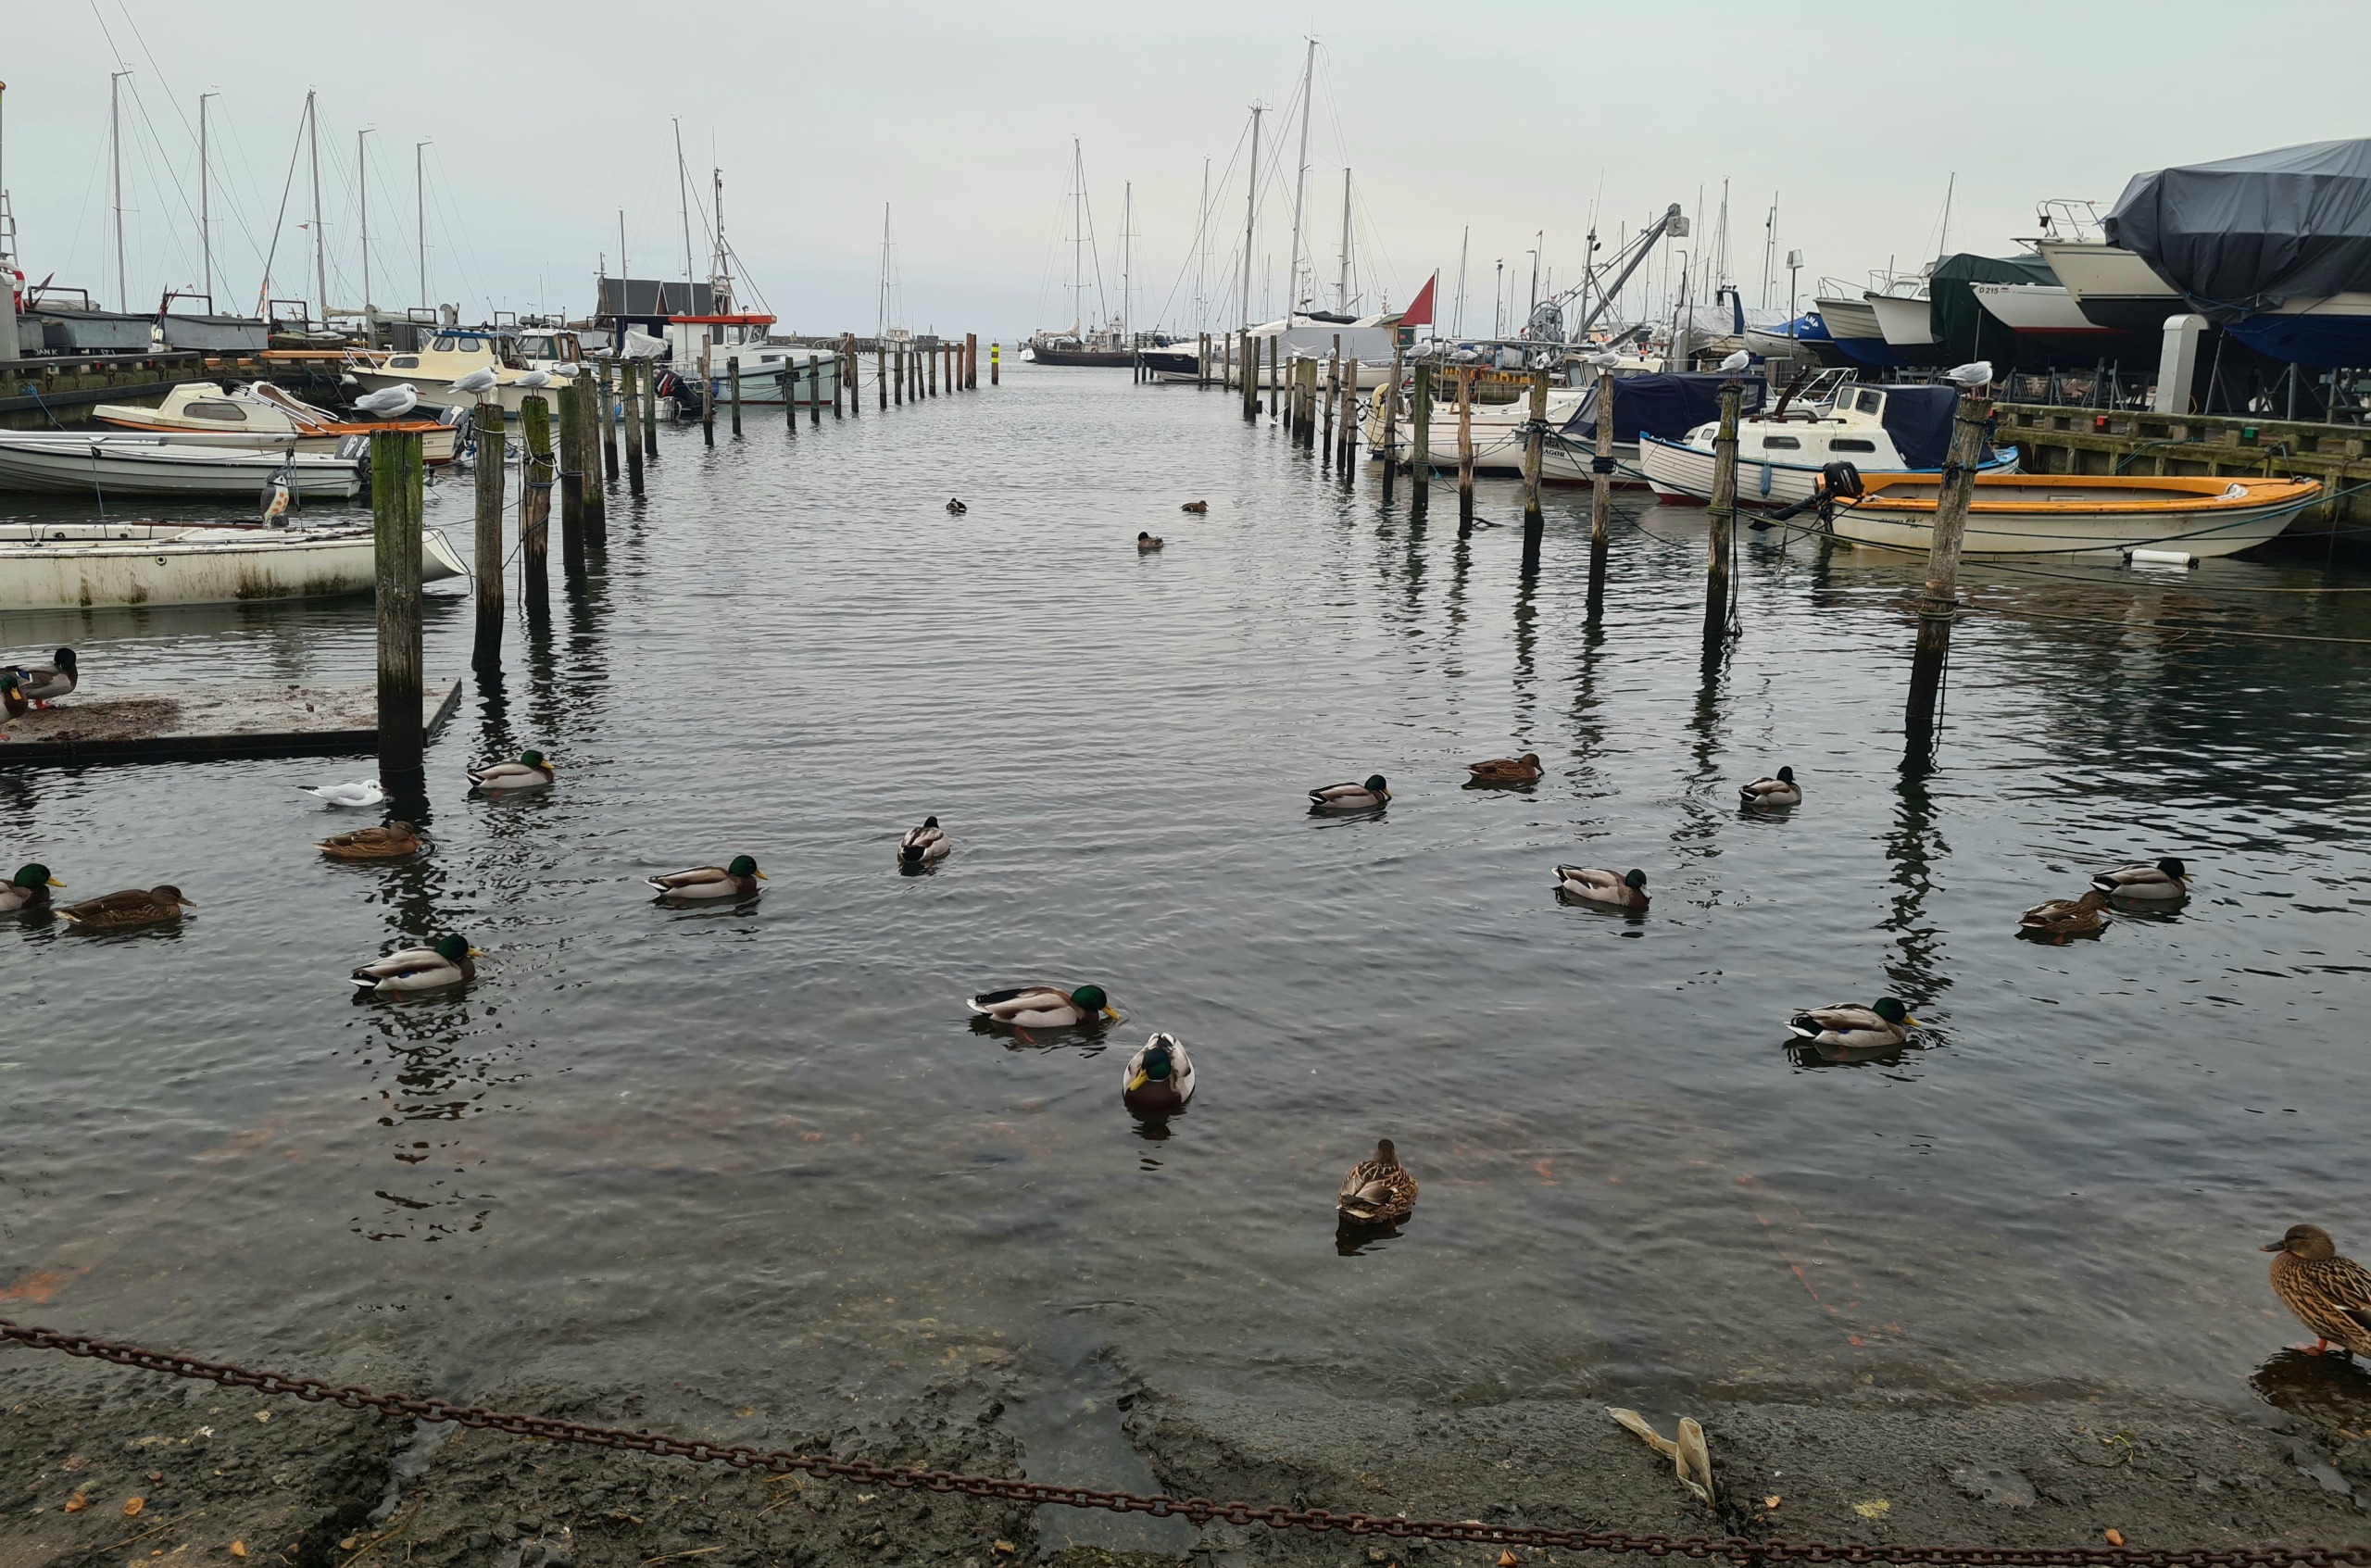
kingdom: Animalia
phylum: Chordata
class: Aves
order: Anseriformes
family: Anatidae
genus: Anas
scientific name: Anas platyrhynchos
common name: Gråand
